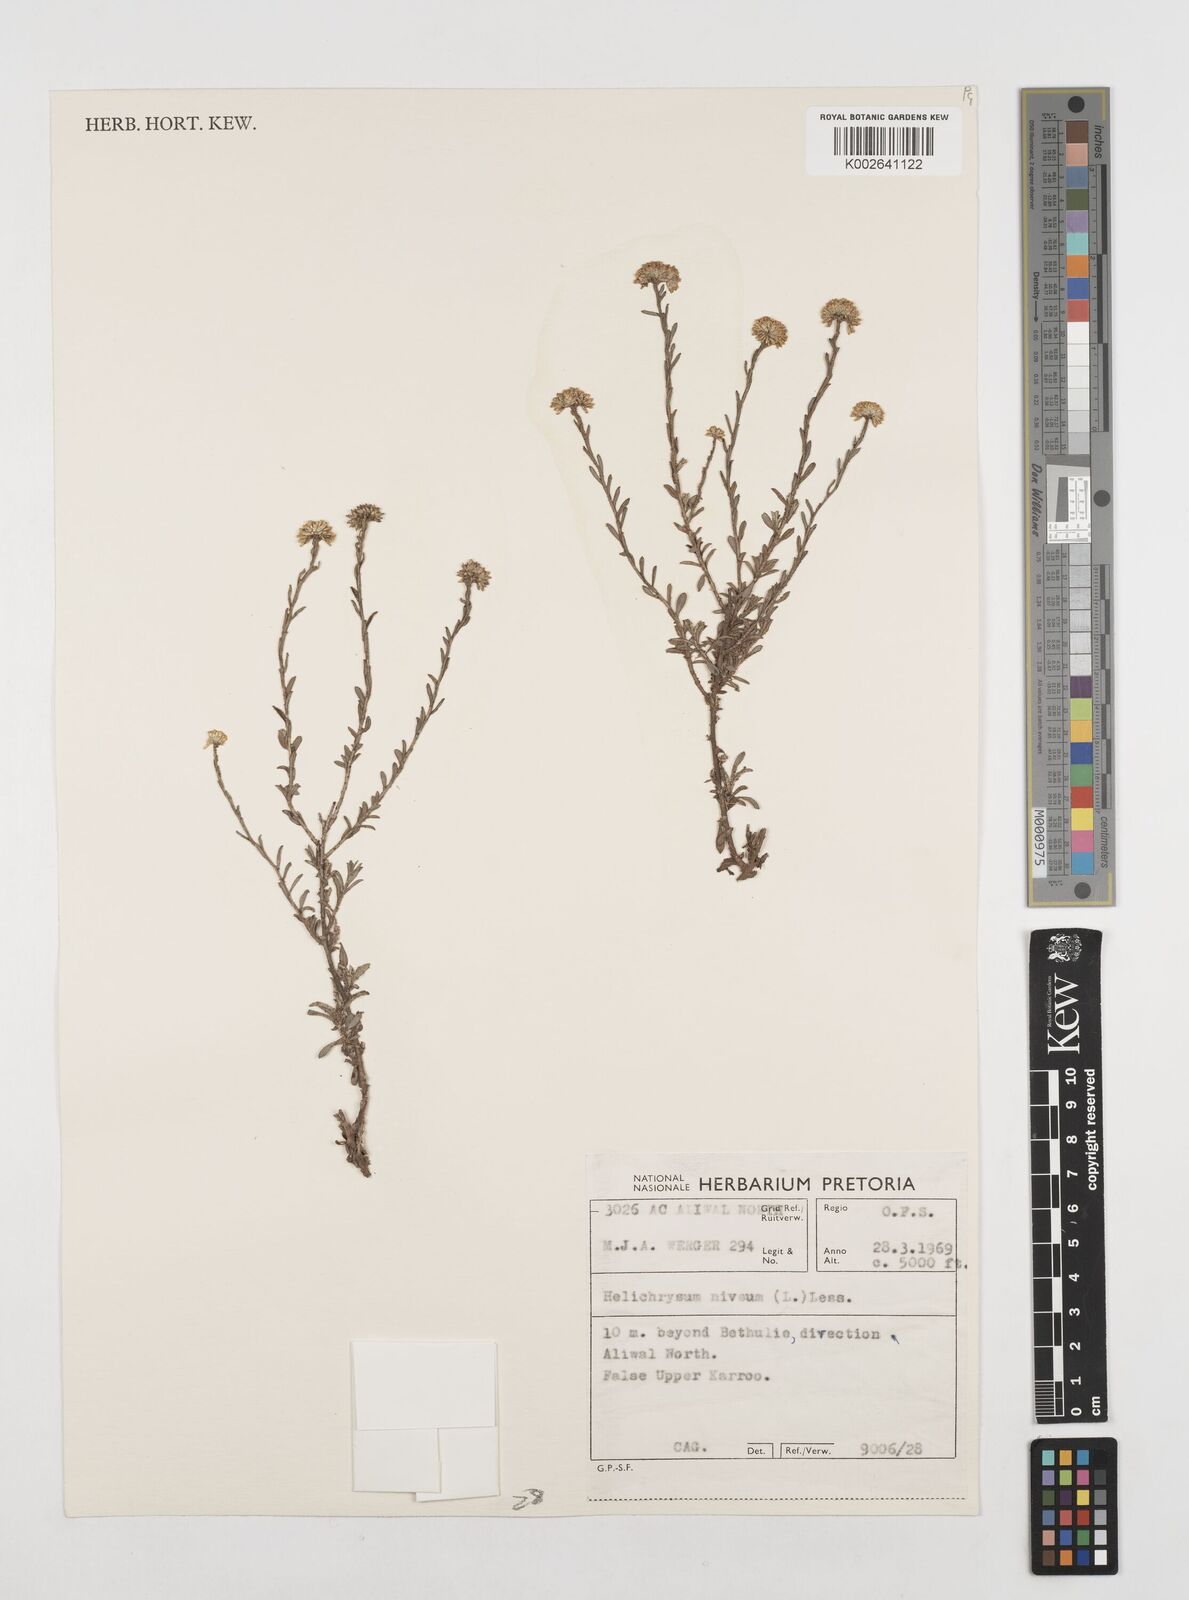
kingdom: Plantae
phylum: Tracheophyta
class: Magnoliopsida
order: Asterales
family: Asteraceae
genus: Helichrysum
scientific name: Helichrysum rutilans
